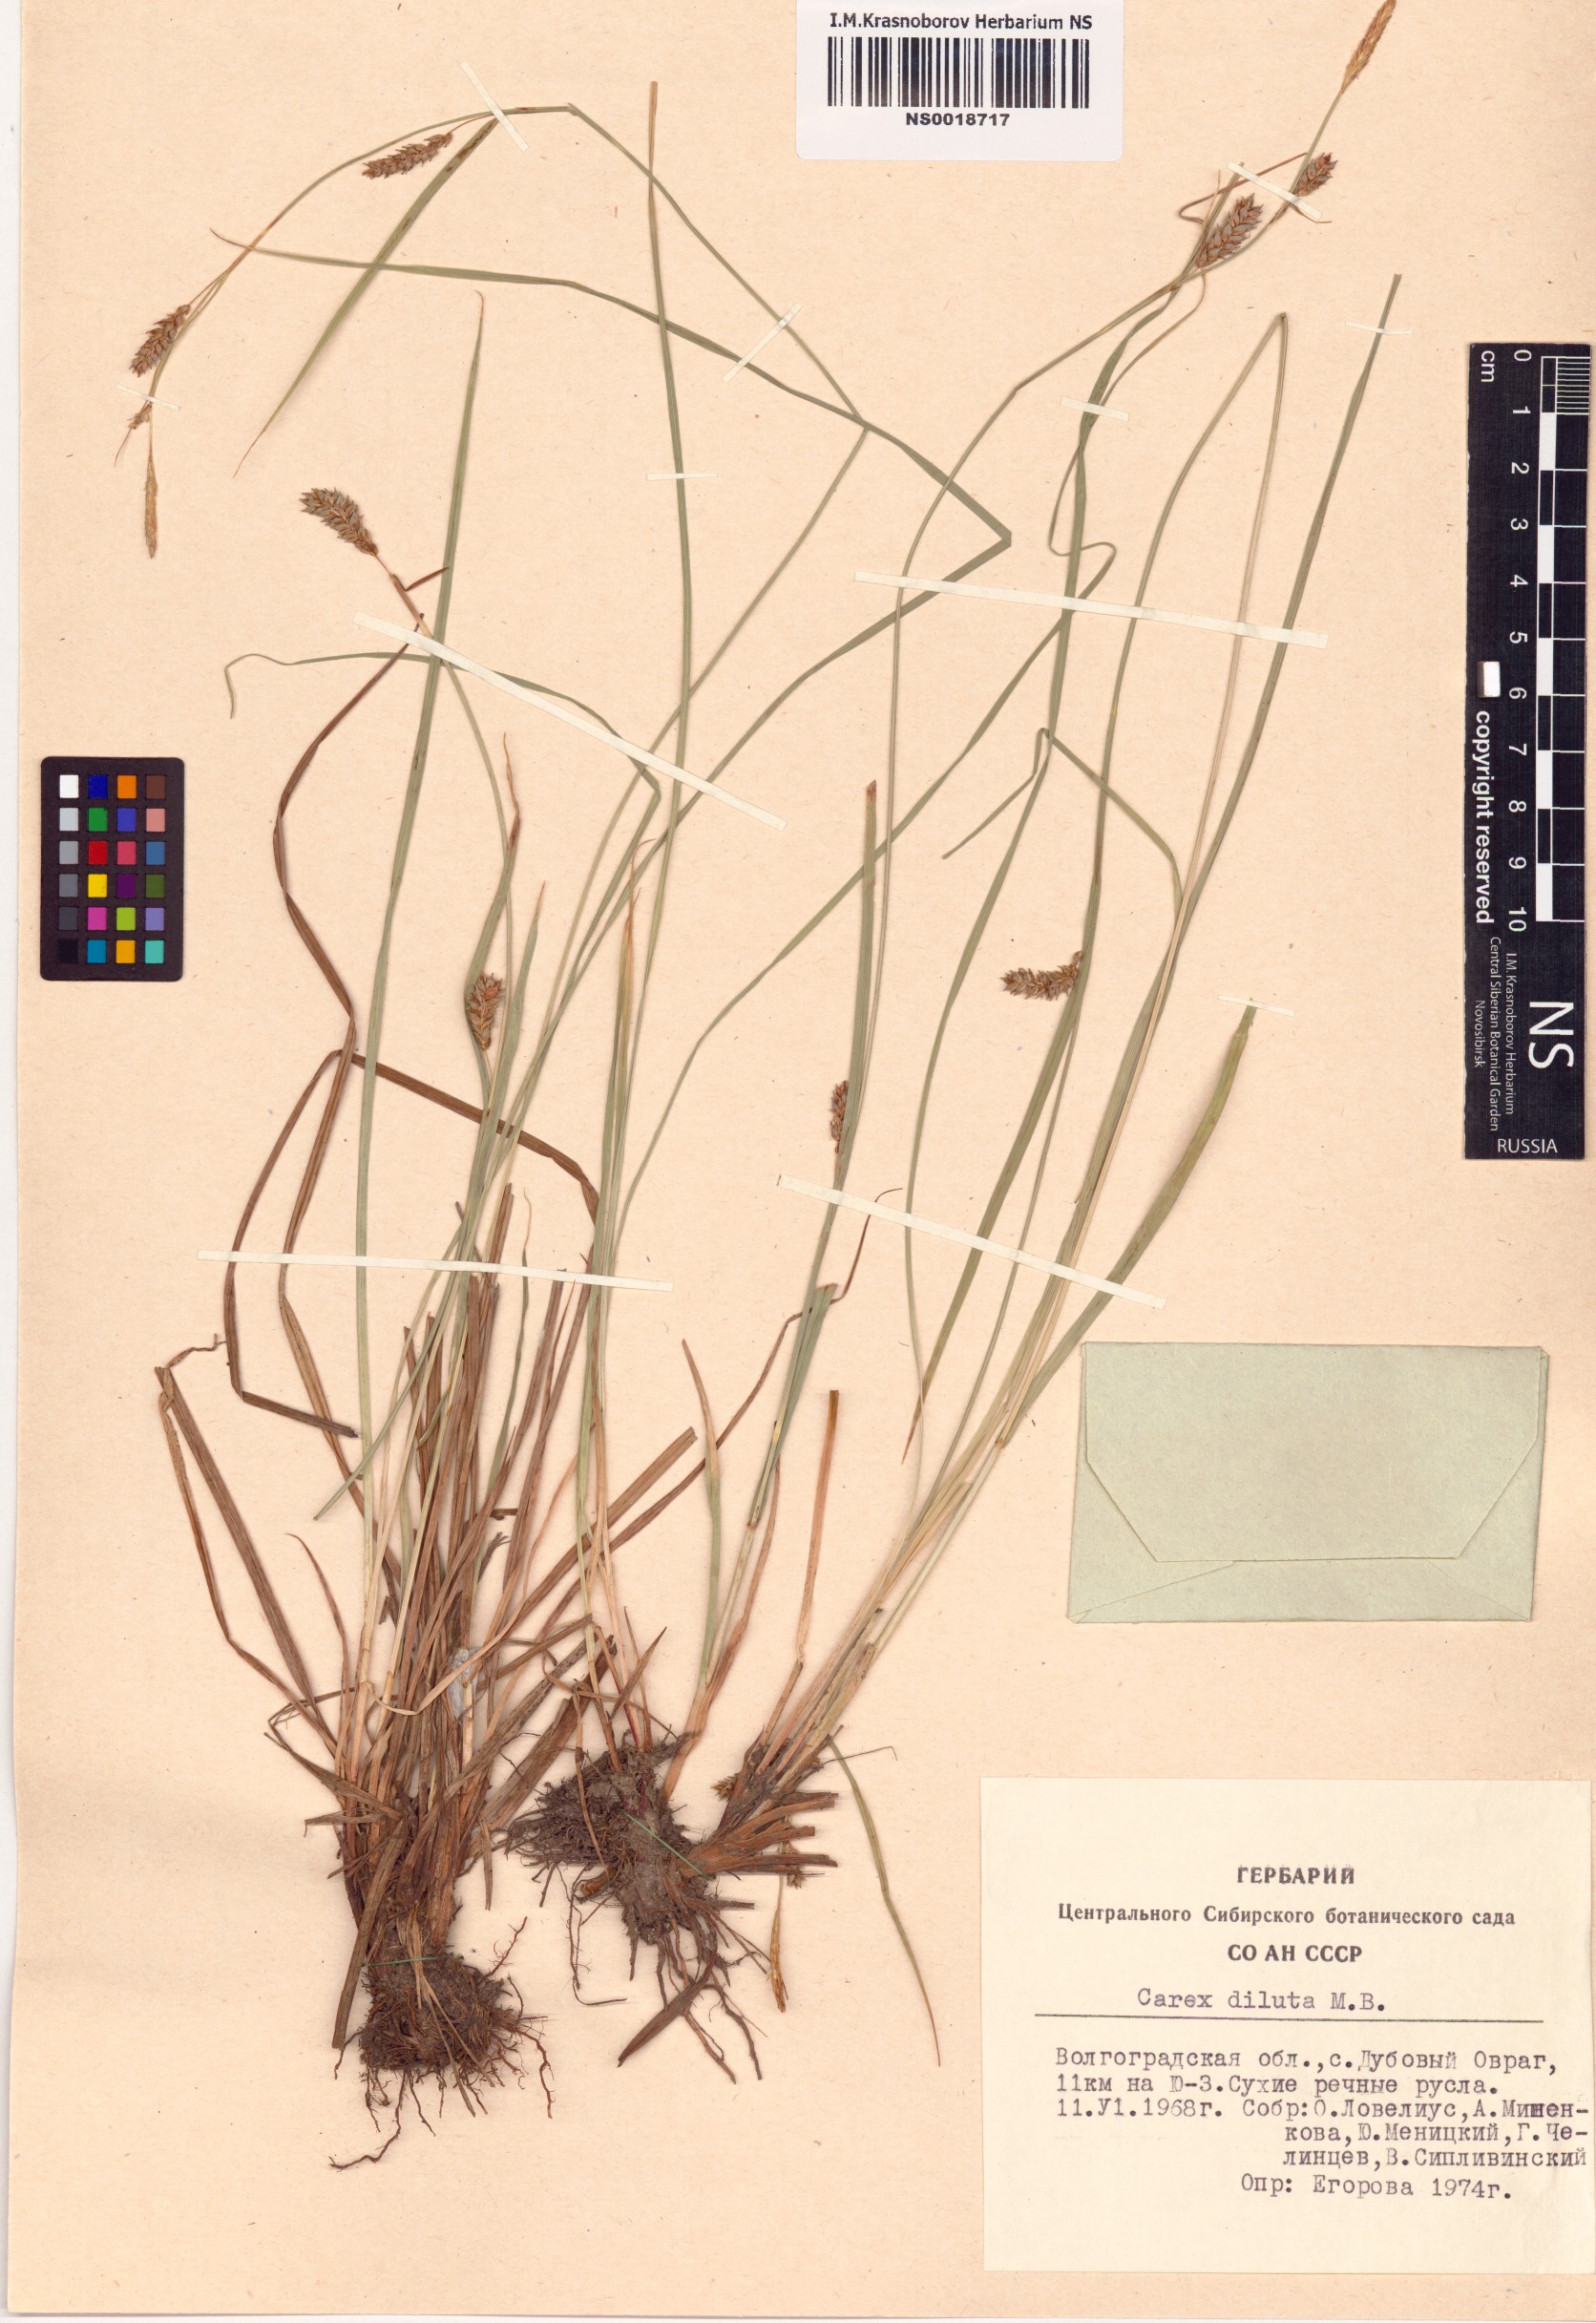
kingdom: Plantae
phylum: Tracheophyta
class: Liliopsida
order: Poales
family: Cyperaceae
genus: Carex
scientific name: Carex diluta
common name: Sedge
